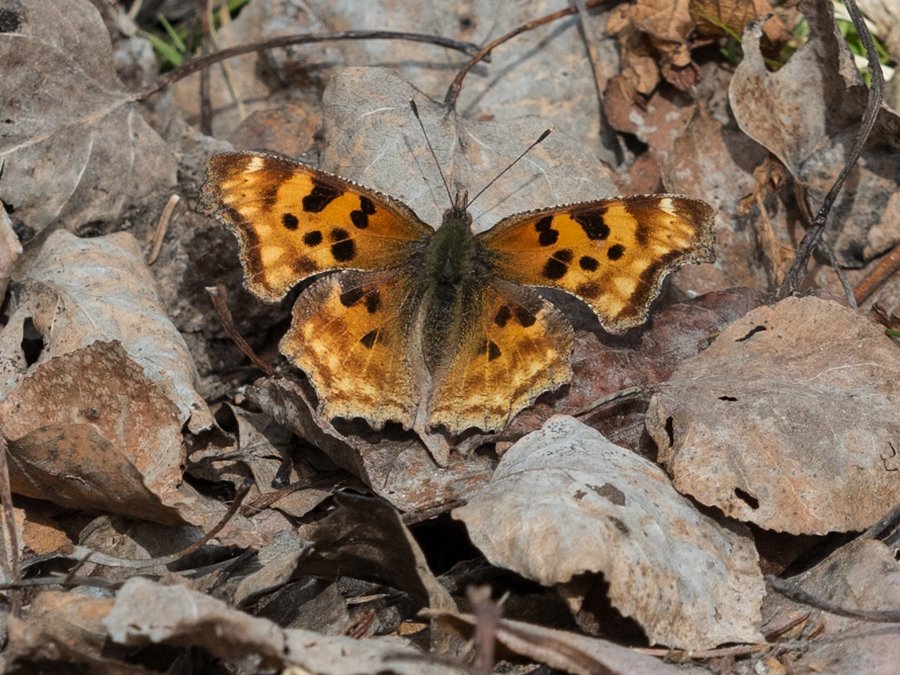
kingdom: Animalia
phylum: Arthropoda
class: Insecta
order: Lepidoptera
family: Nymphalidae
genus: Polygonia
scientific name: Polygonia satyrus
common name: Satyr Comma
